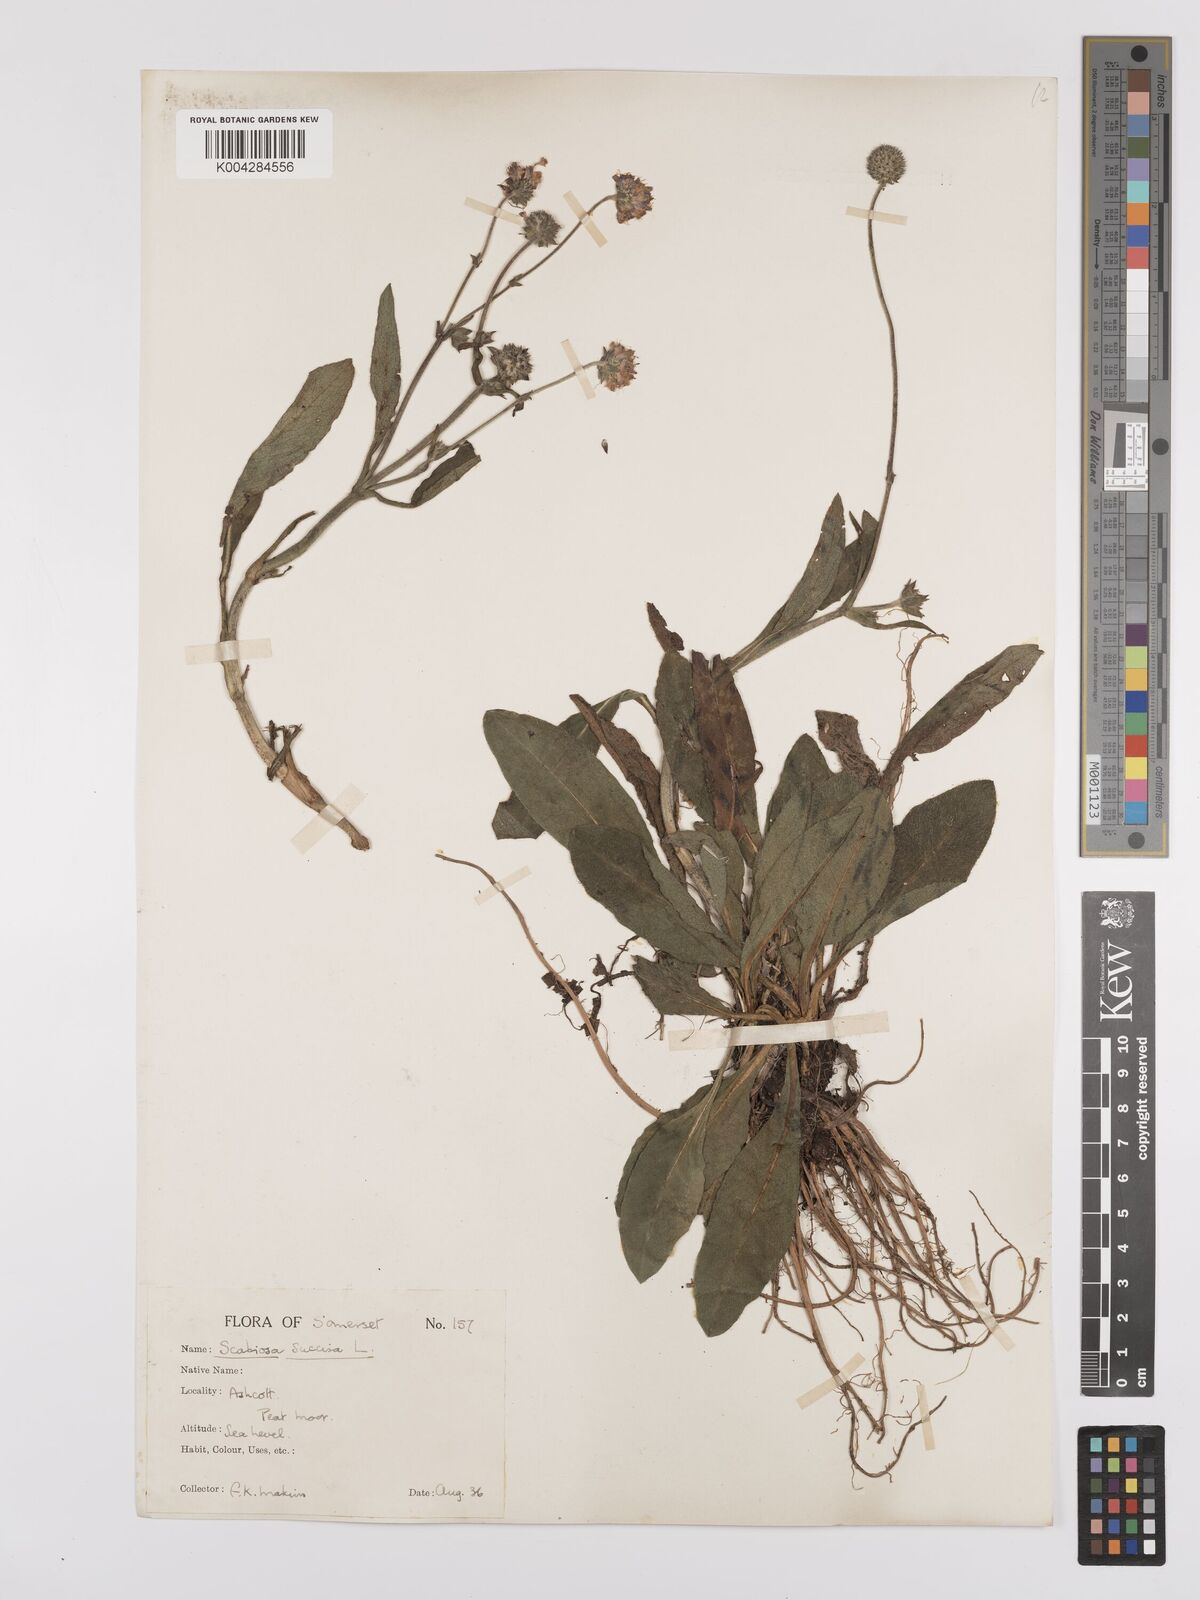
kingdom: Plantae
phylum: Tracheophyta
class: Magnoliopsida
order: Dipsacales
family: Caprifoliaceae
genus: Succisa
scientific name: Succisa pratensis
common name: Devil's-bit
